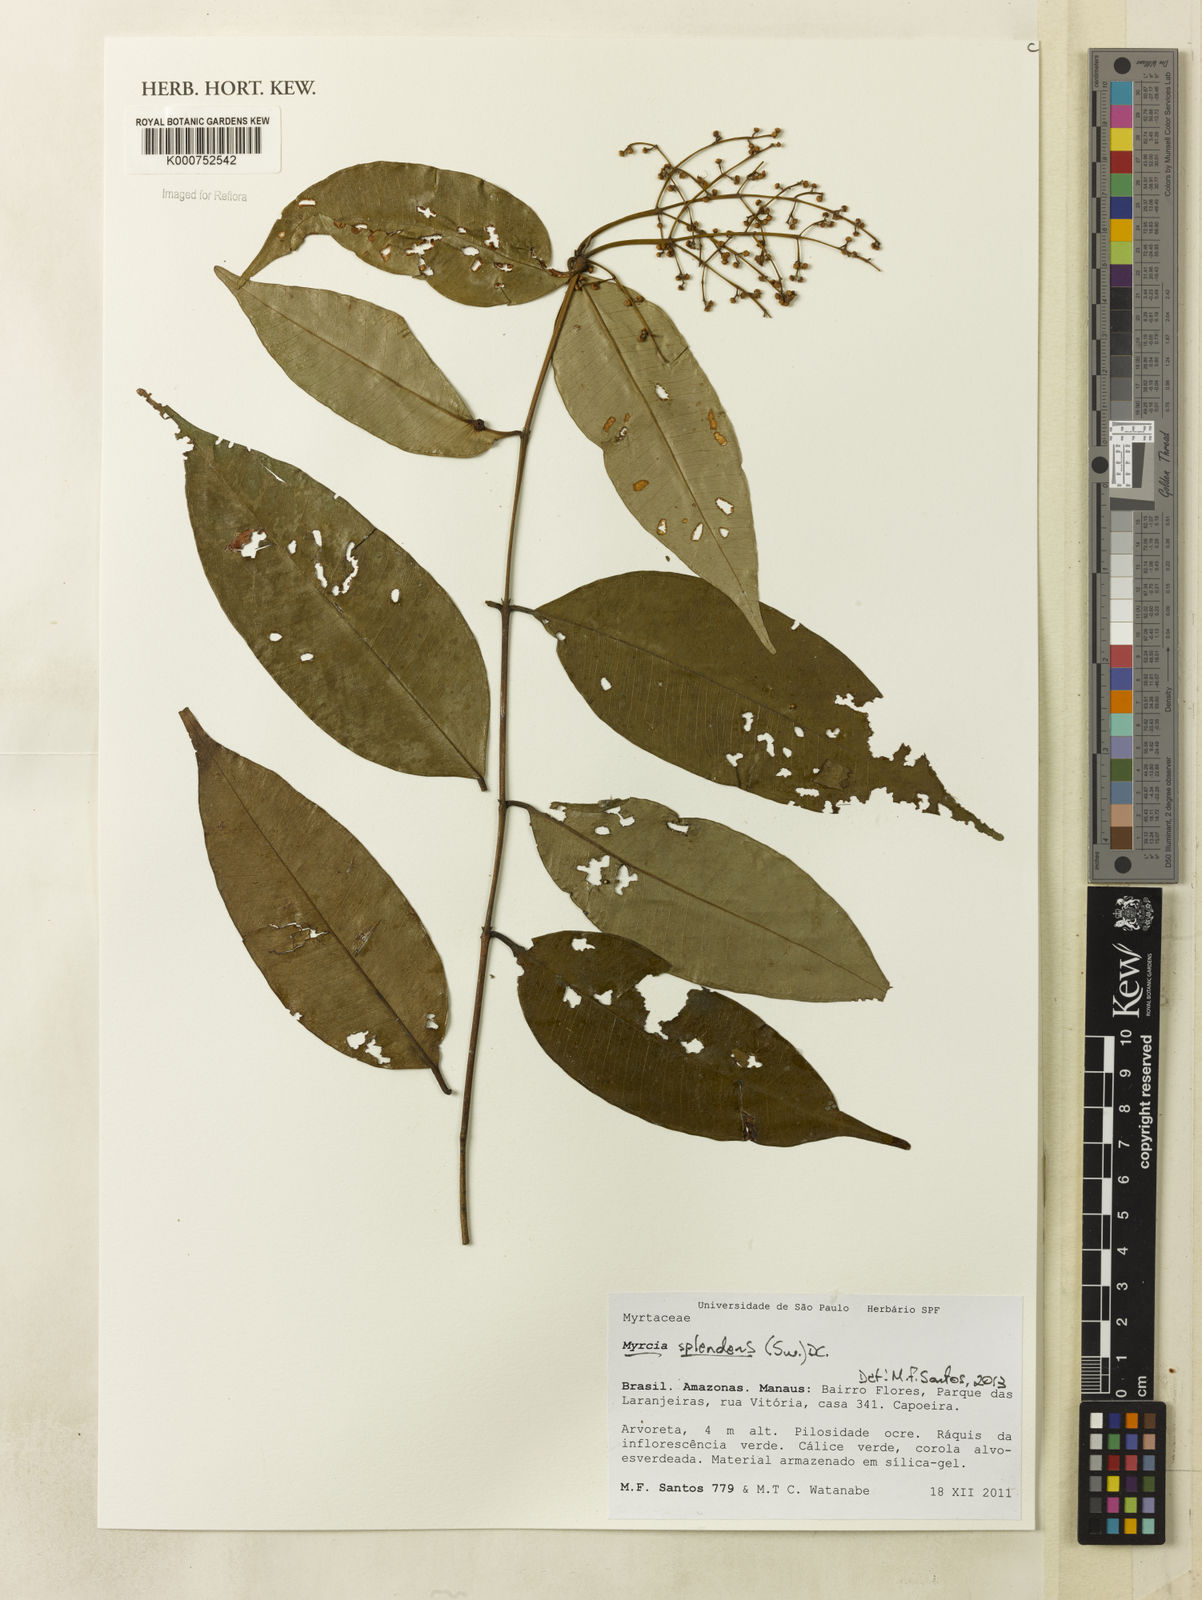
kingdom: Plantae
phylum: Tracheophyta
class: Magnoliopsida
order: Myrtales
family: Myrtaceae
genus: Myrcia
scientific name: Myrcia splendens
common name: Surinam cherry
